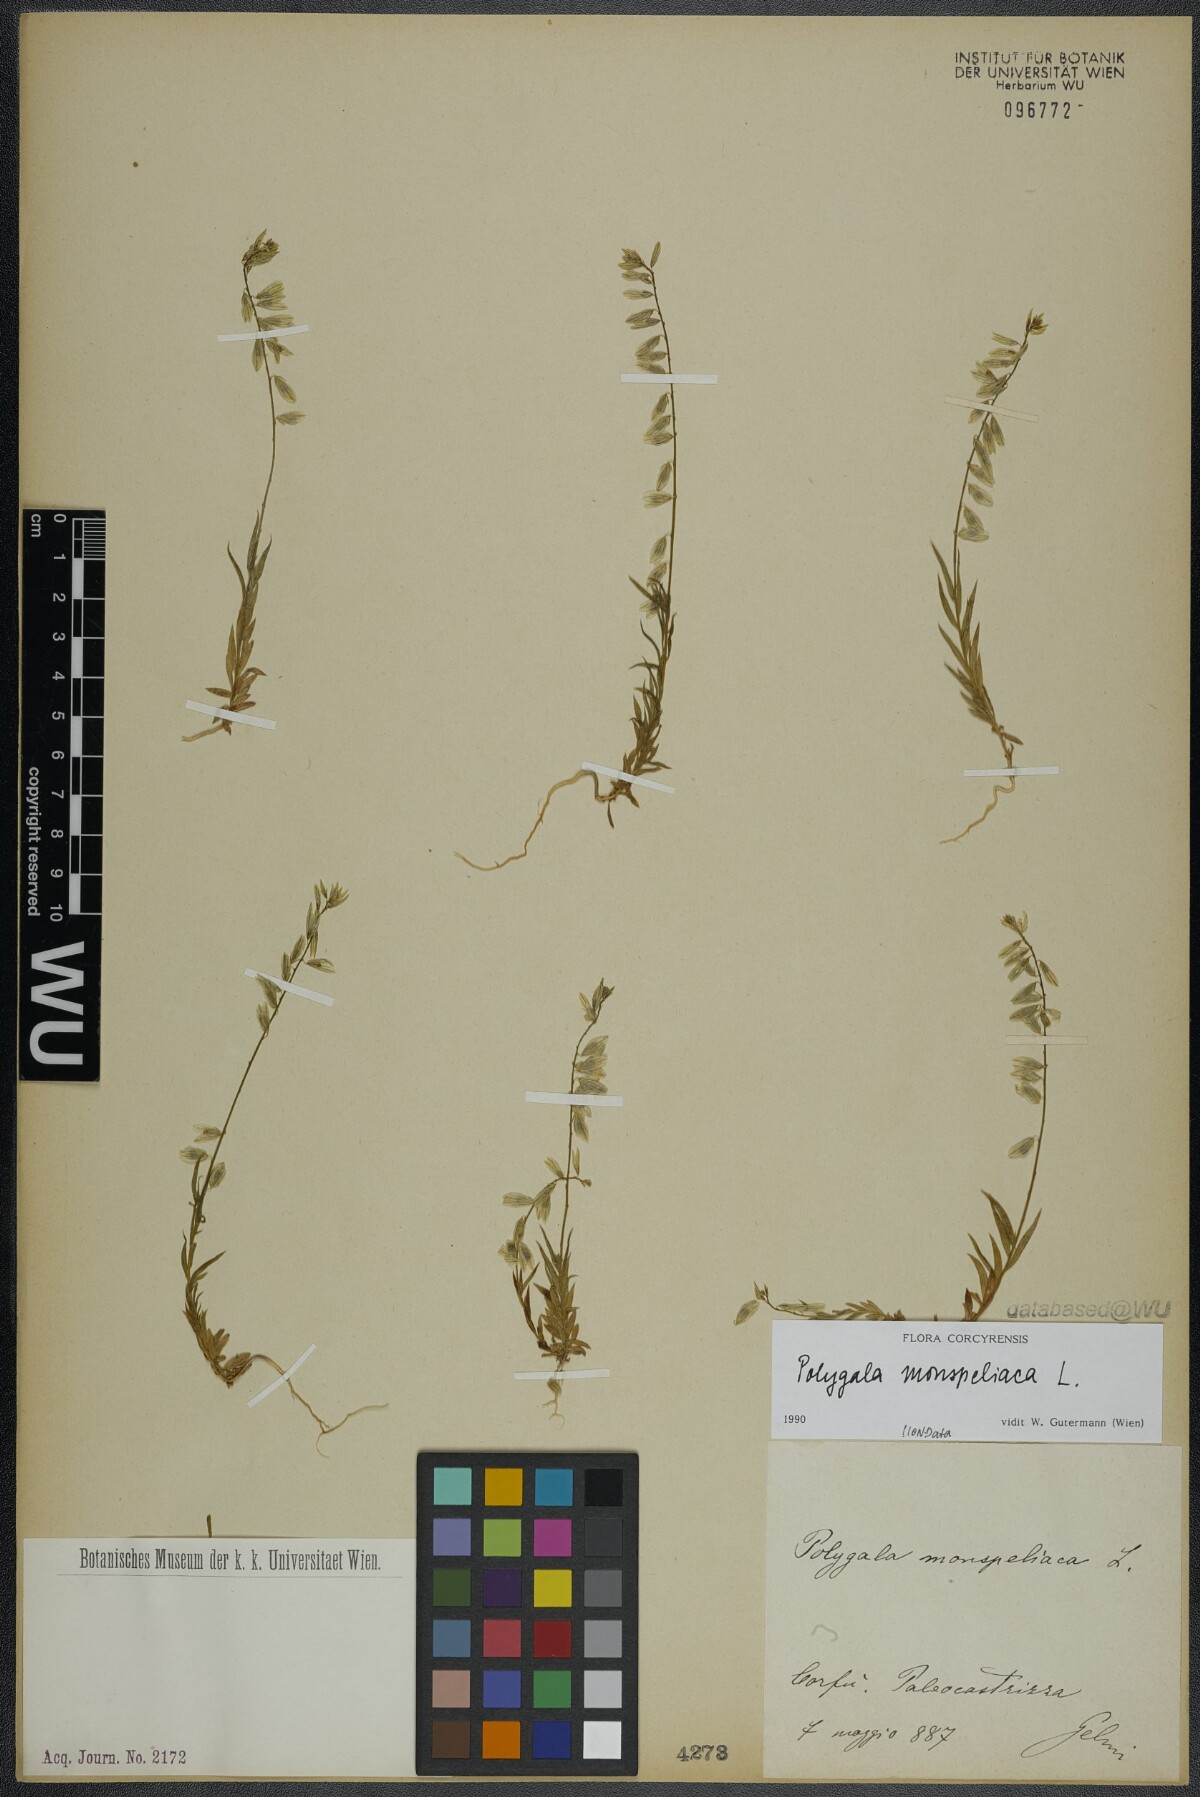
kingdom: Plantae
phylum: Tracheophyta
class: Magnoliopsida
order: Fabales
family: Polygalaceae
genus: Polygala
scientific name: Polygala monspeliaca
